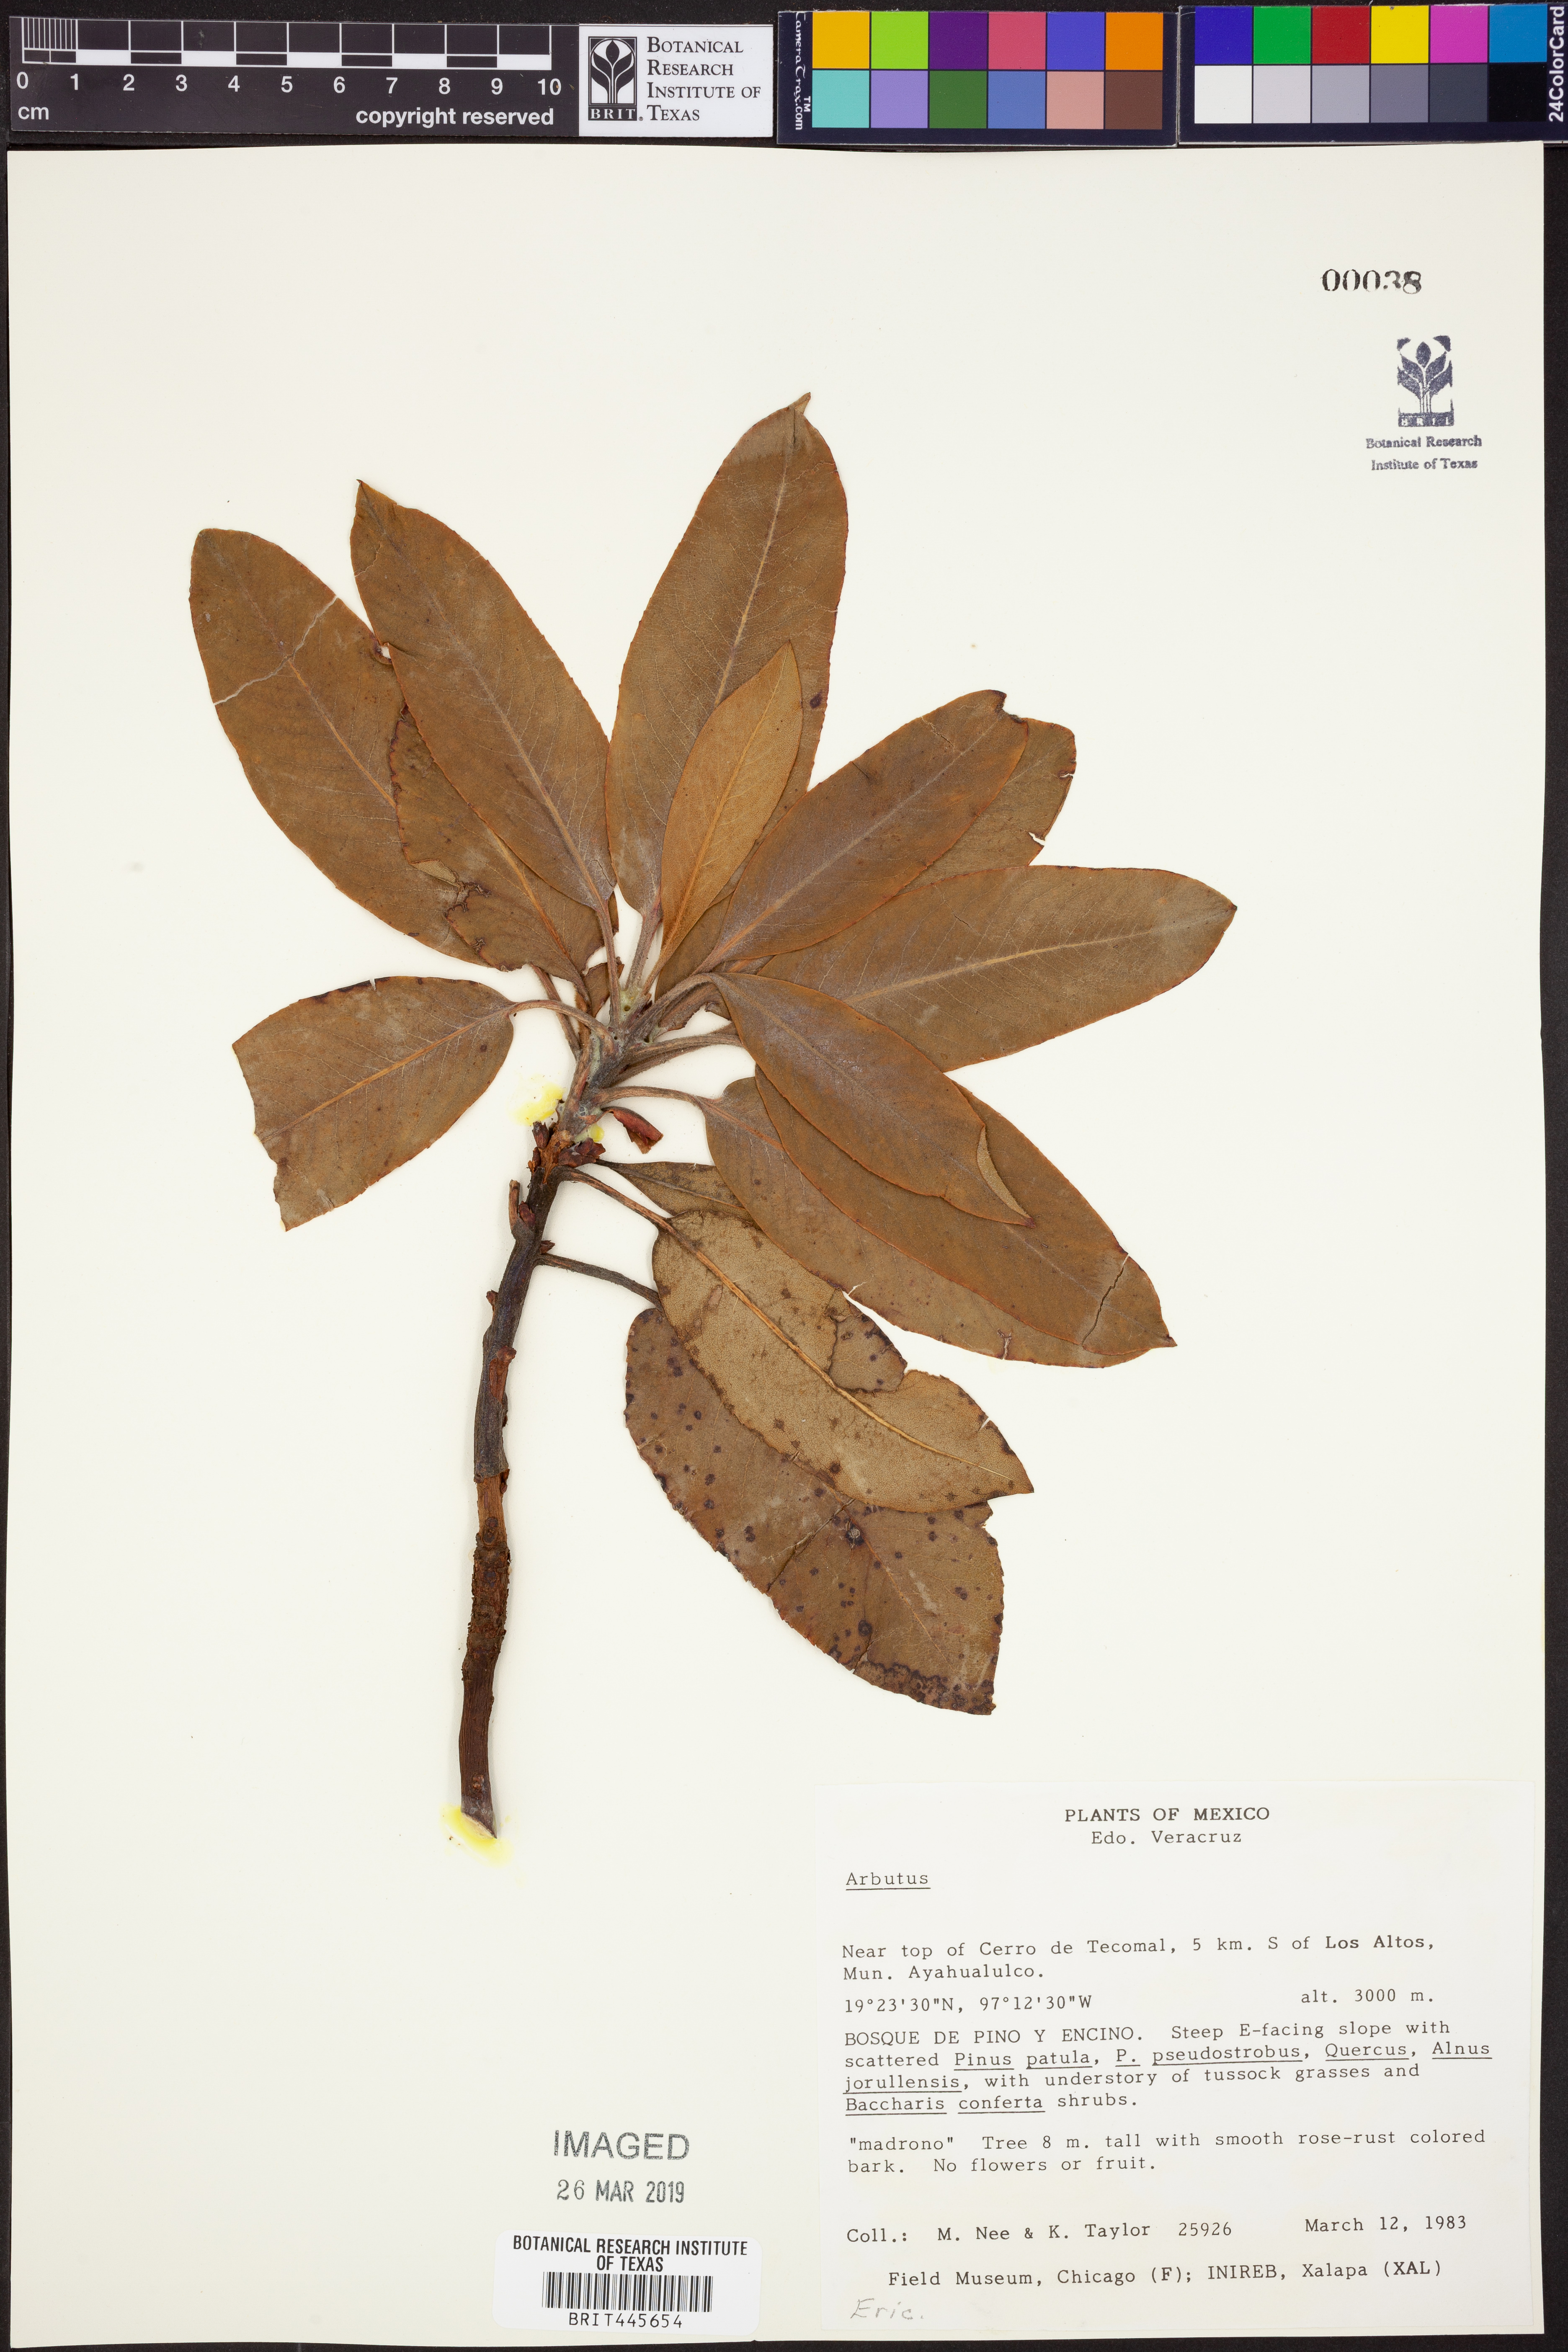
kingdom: Plantae
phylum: Tracheophyta
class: Magnoliopsida
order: Ericales
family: Ericaceae
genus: Arbutus
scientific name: Arbutus
